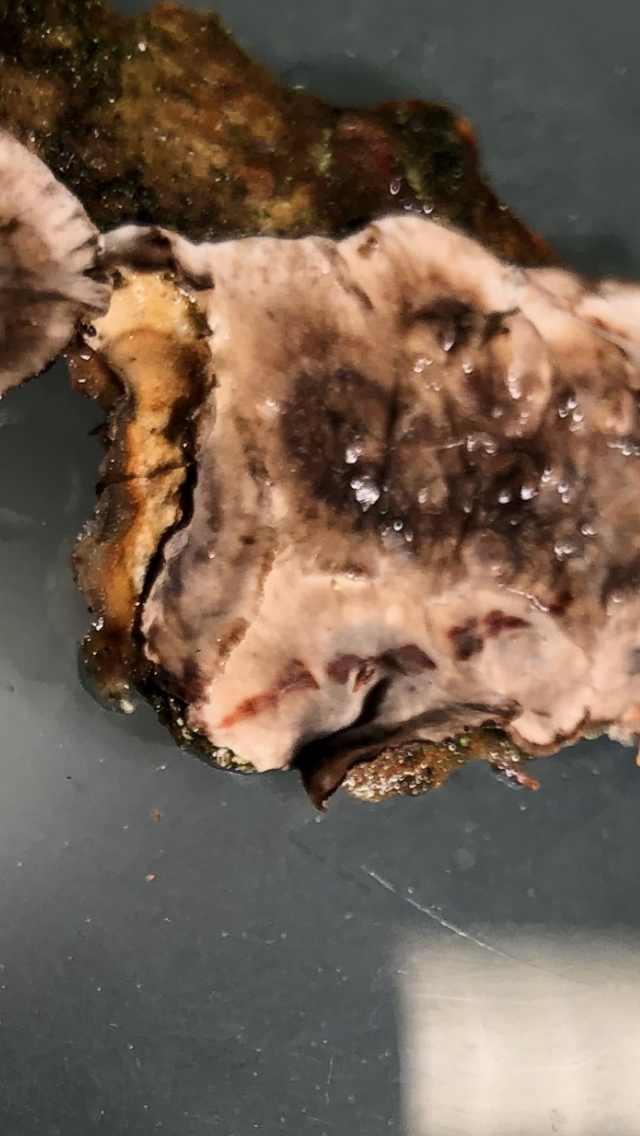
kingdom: Fungi
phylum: Basidiomycota
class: Agaricomycetes
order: Russulales
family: Stereaceae
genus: Stereum
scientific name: Stereum sanguinolentum
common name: blødende lædersvamp
